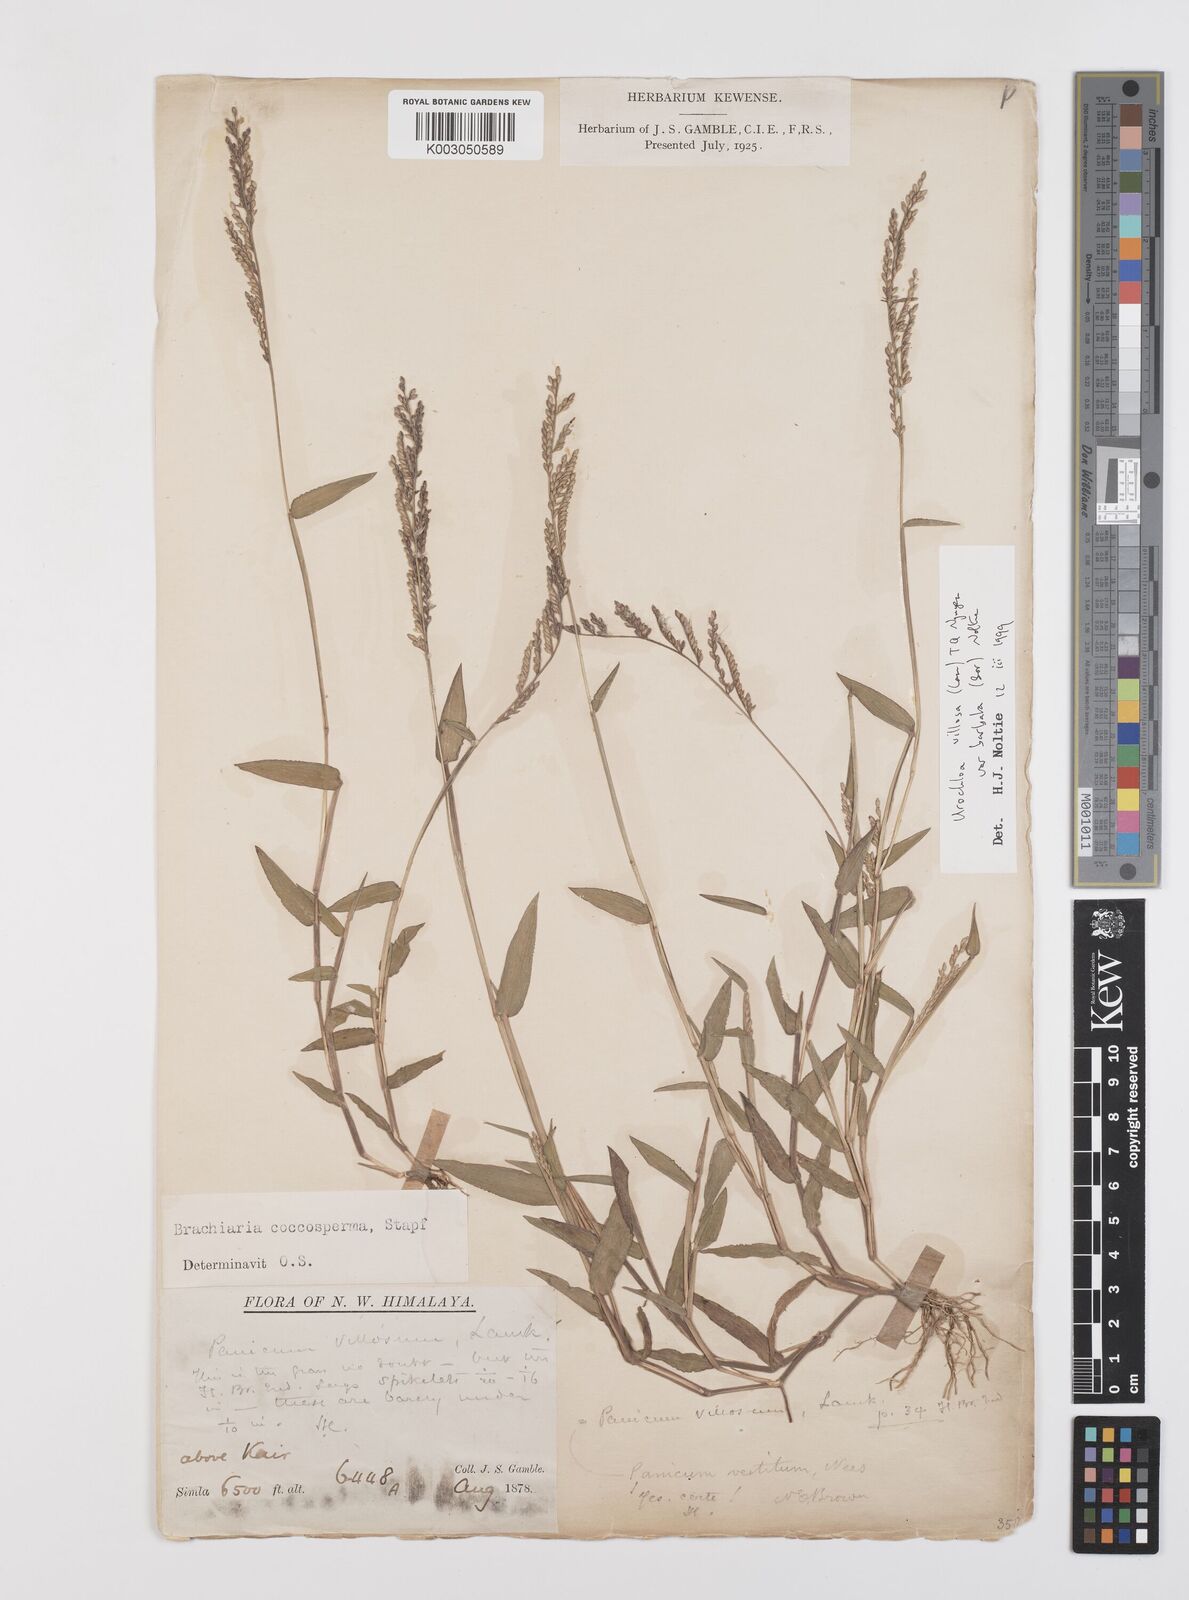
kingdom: Plantae
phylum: Tracheophyta
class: Liliopsida
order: Poales
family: Poaceae
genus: Urochloa
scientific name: Urochloa villosa
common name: Hairy signalgrass
